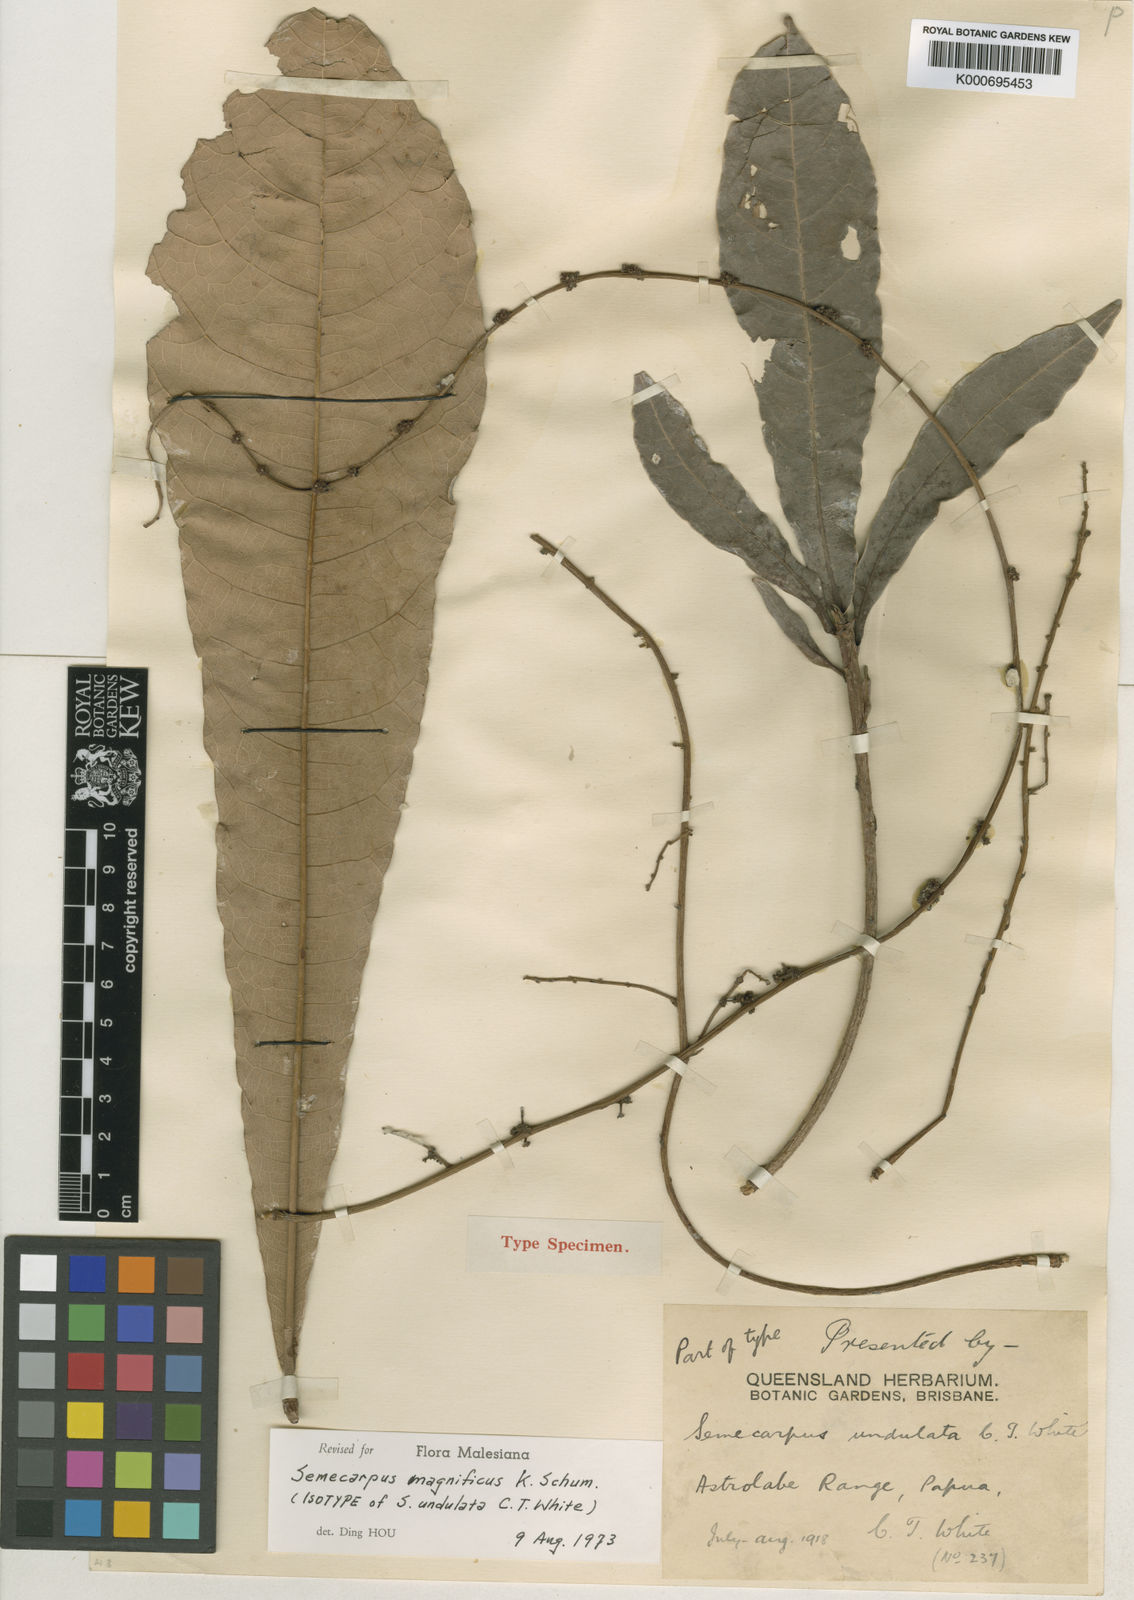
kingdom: Plantae
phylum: Tracheophyta
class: Magnoliopsida
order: Sapindales
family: Anacardiaceae
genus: Semecarpus
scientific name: Semecarpus magnificus
